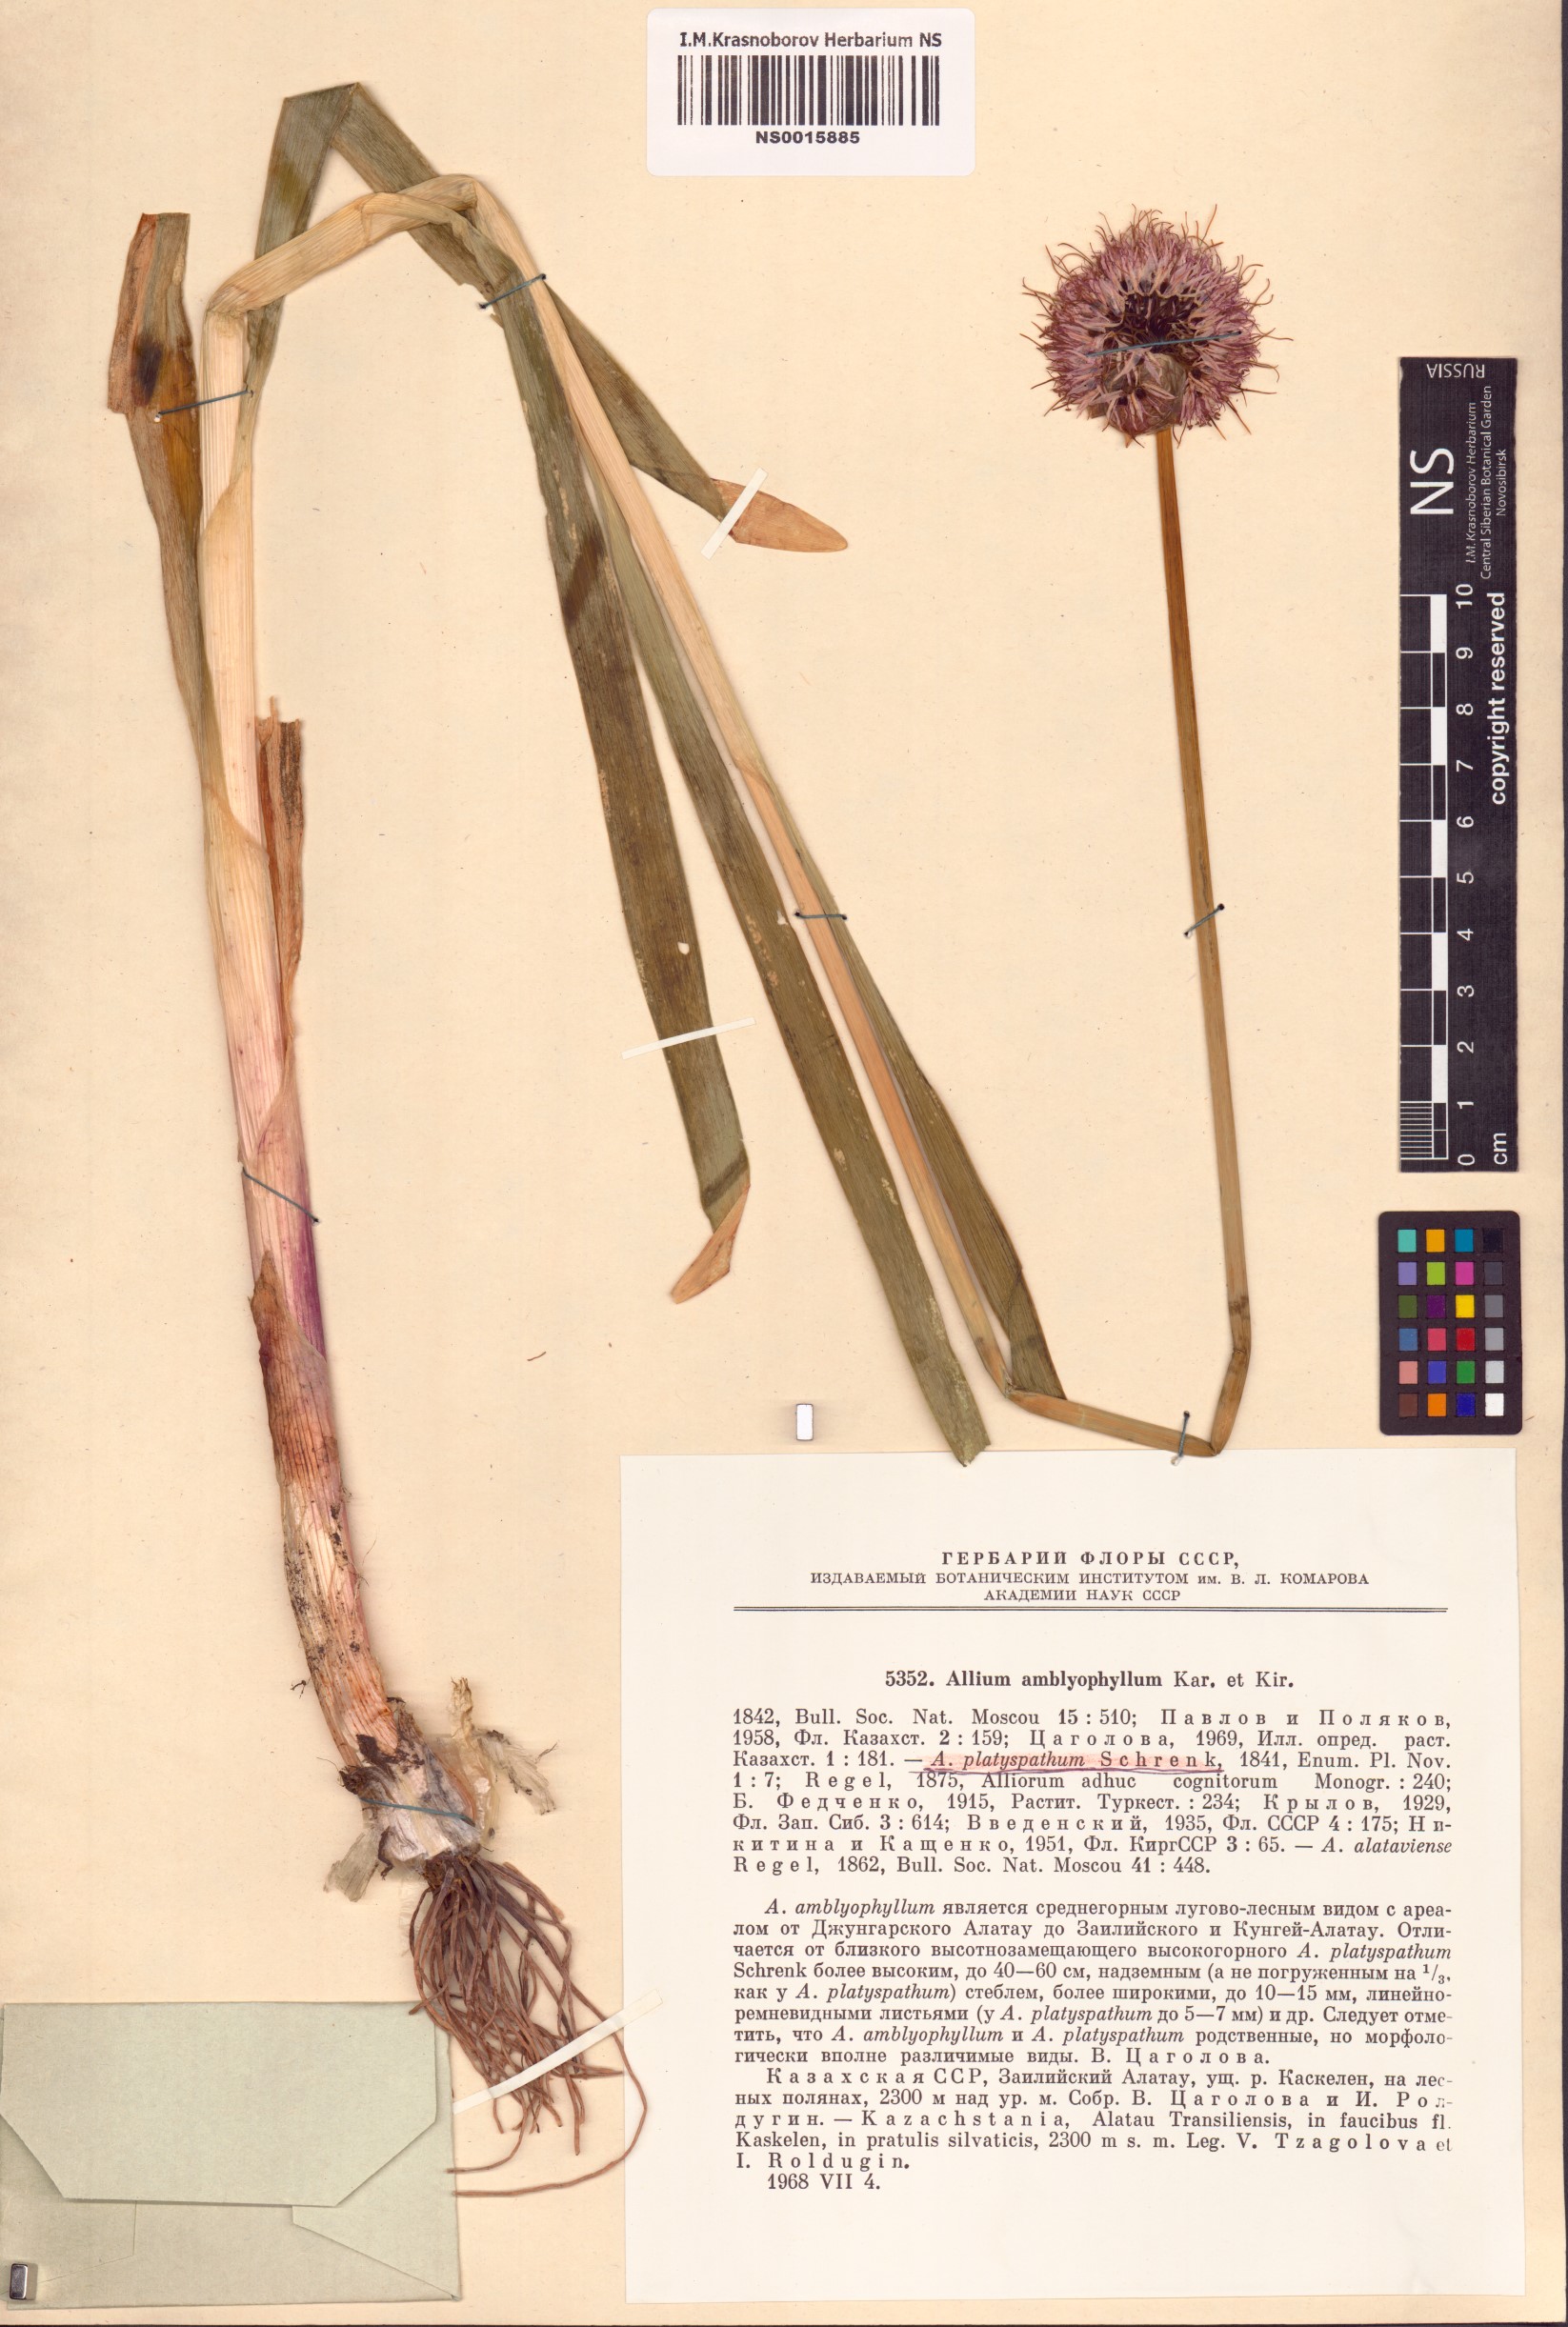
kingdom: Plantae
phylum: Tracheophyta
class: Liliopsida
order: Asparagales
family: Amaryllidaceae
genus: Allium
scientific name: Allium platyspathum
